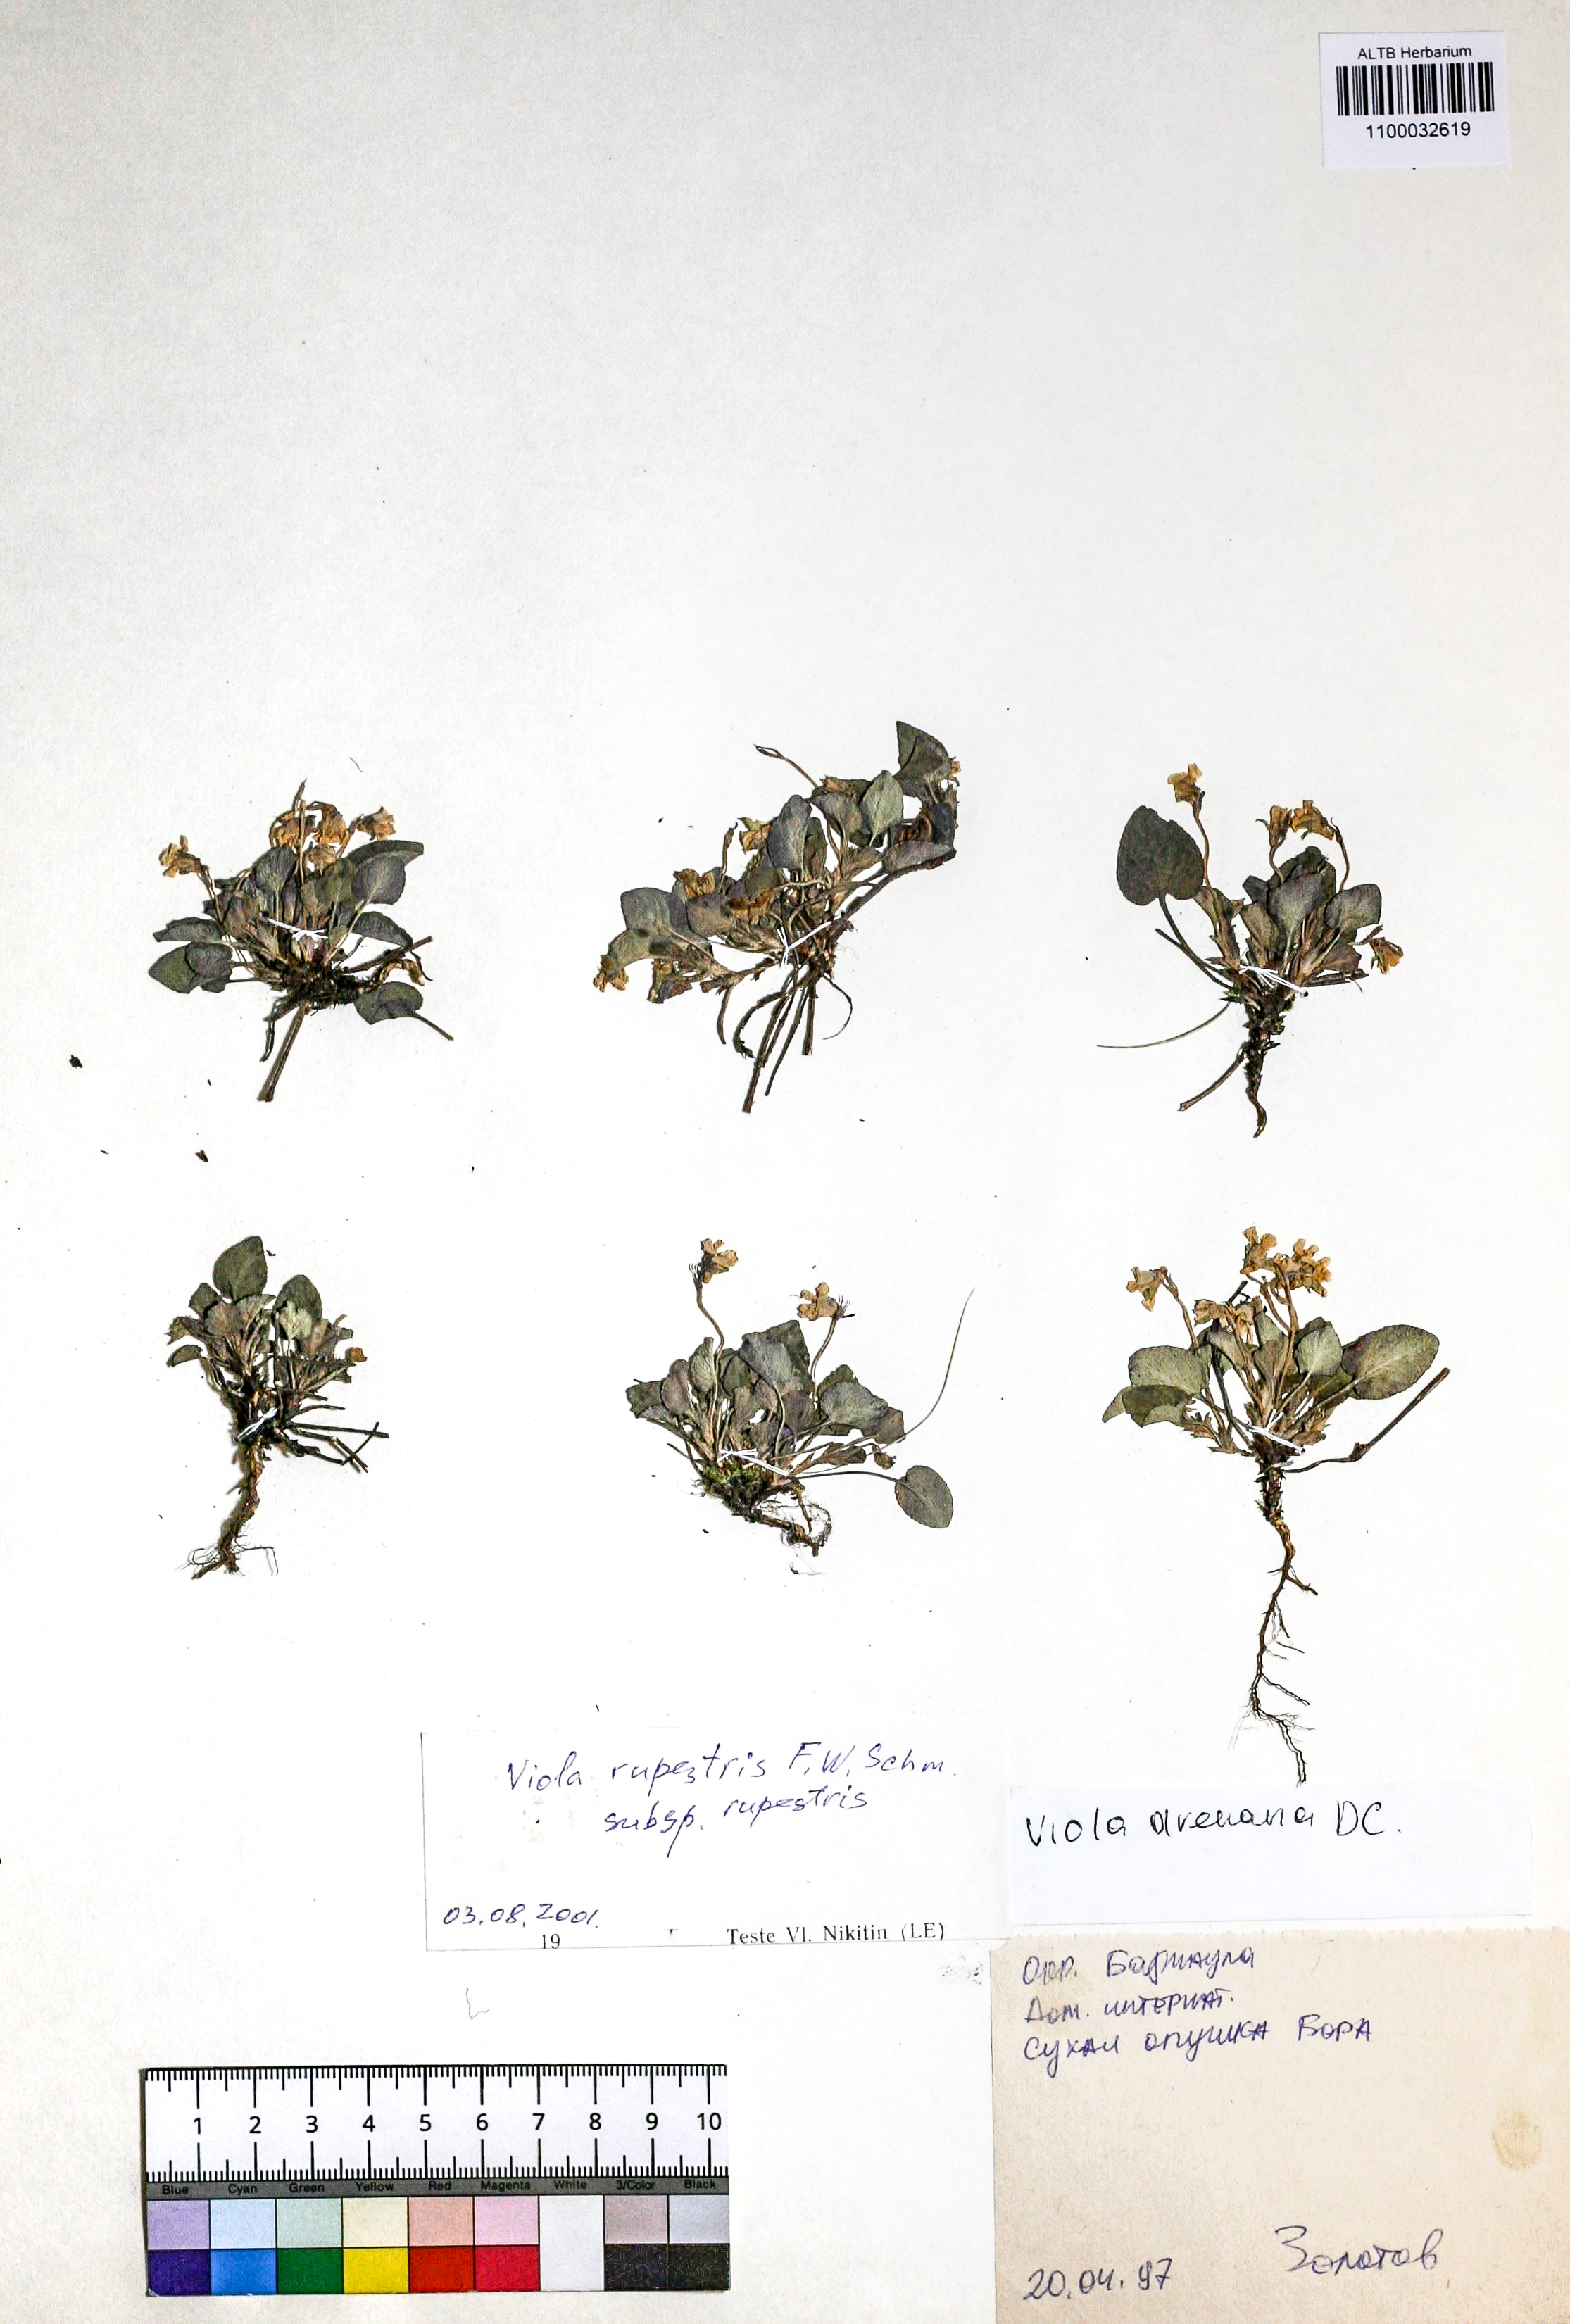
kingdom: Plantae
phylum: Tracheophyta
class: Magnoliopsida
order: Malpighiales
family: Violaceae
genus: Viola
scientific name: Viola rupestris
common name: Teesdale violet
